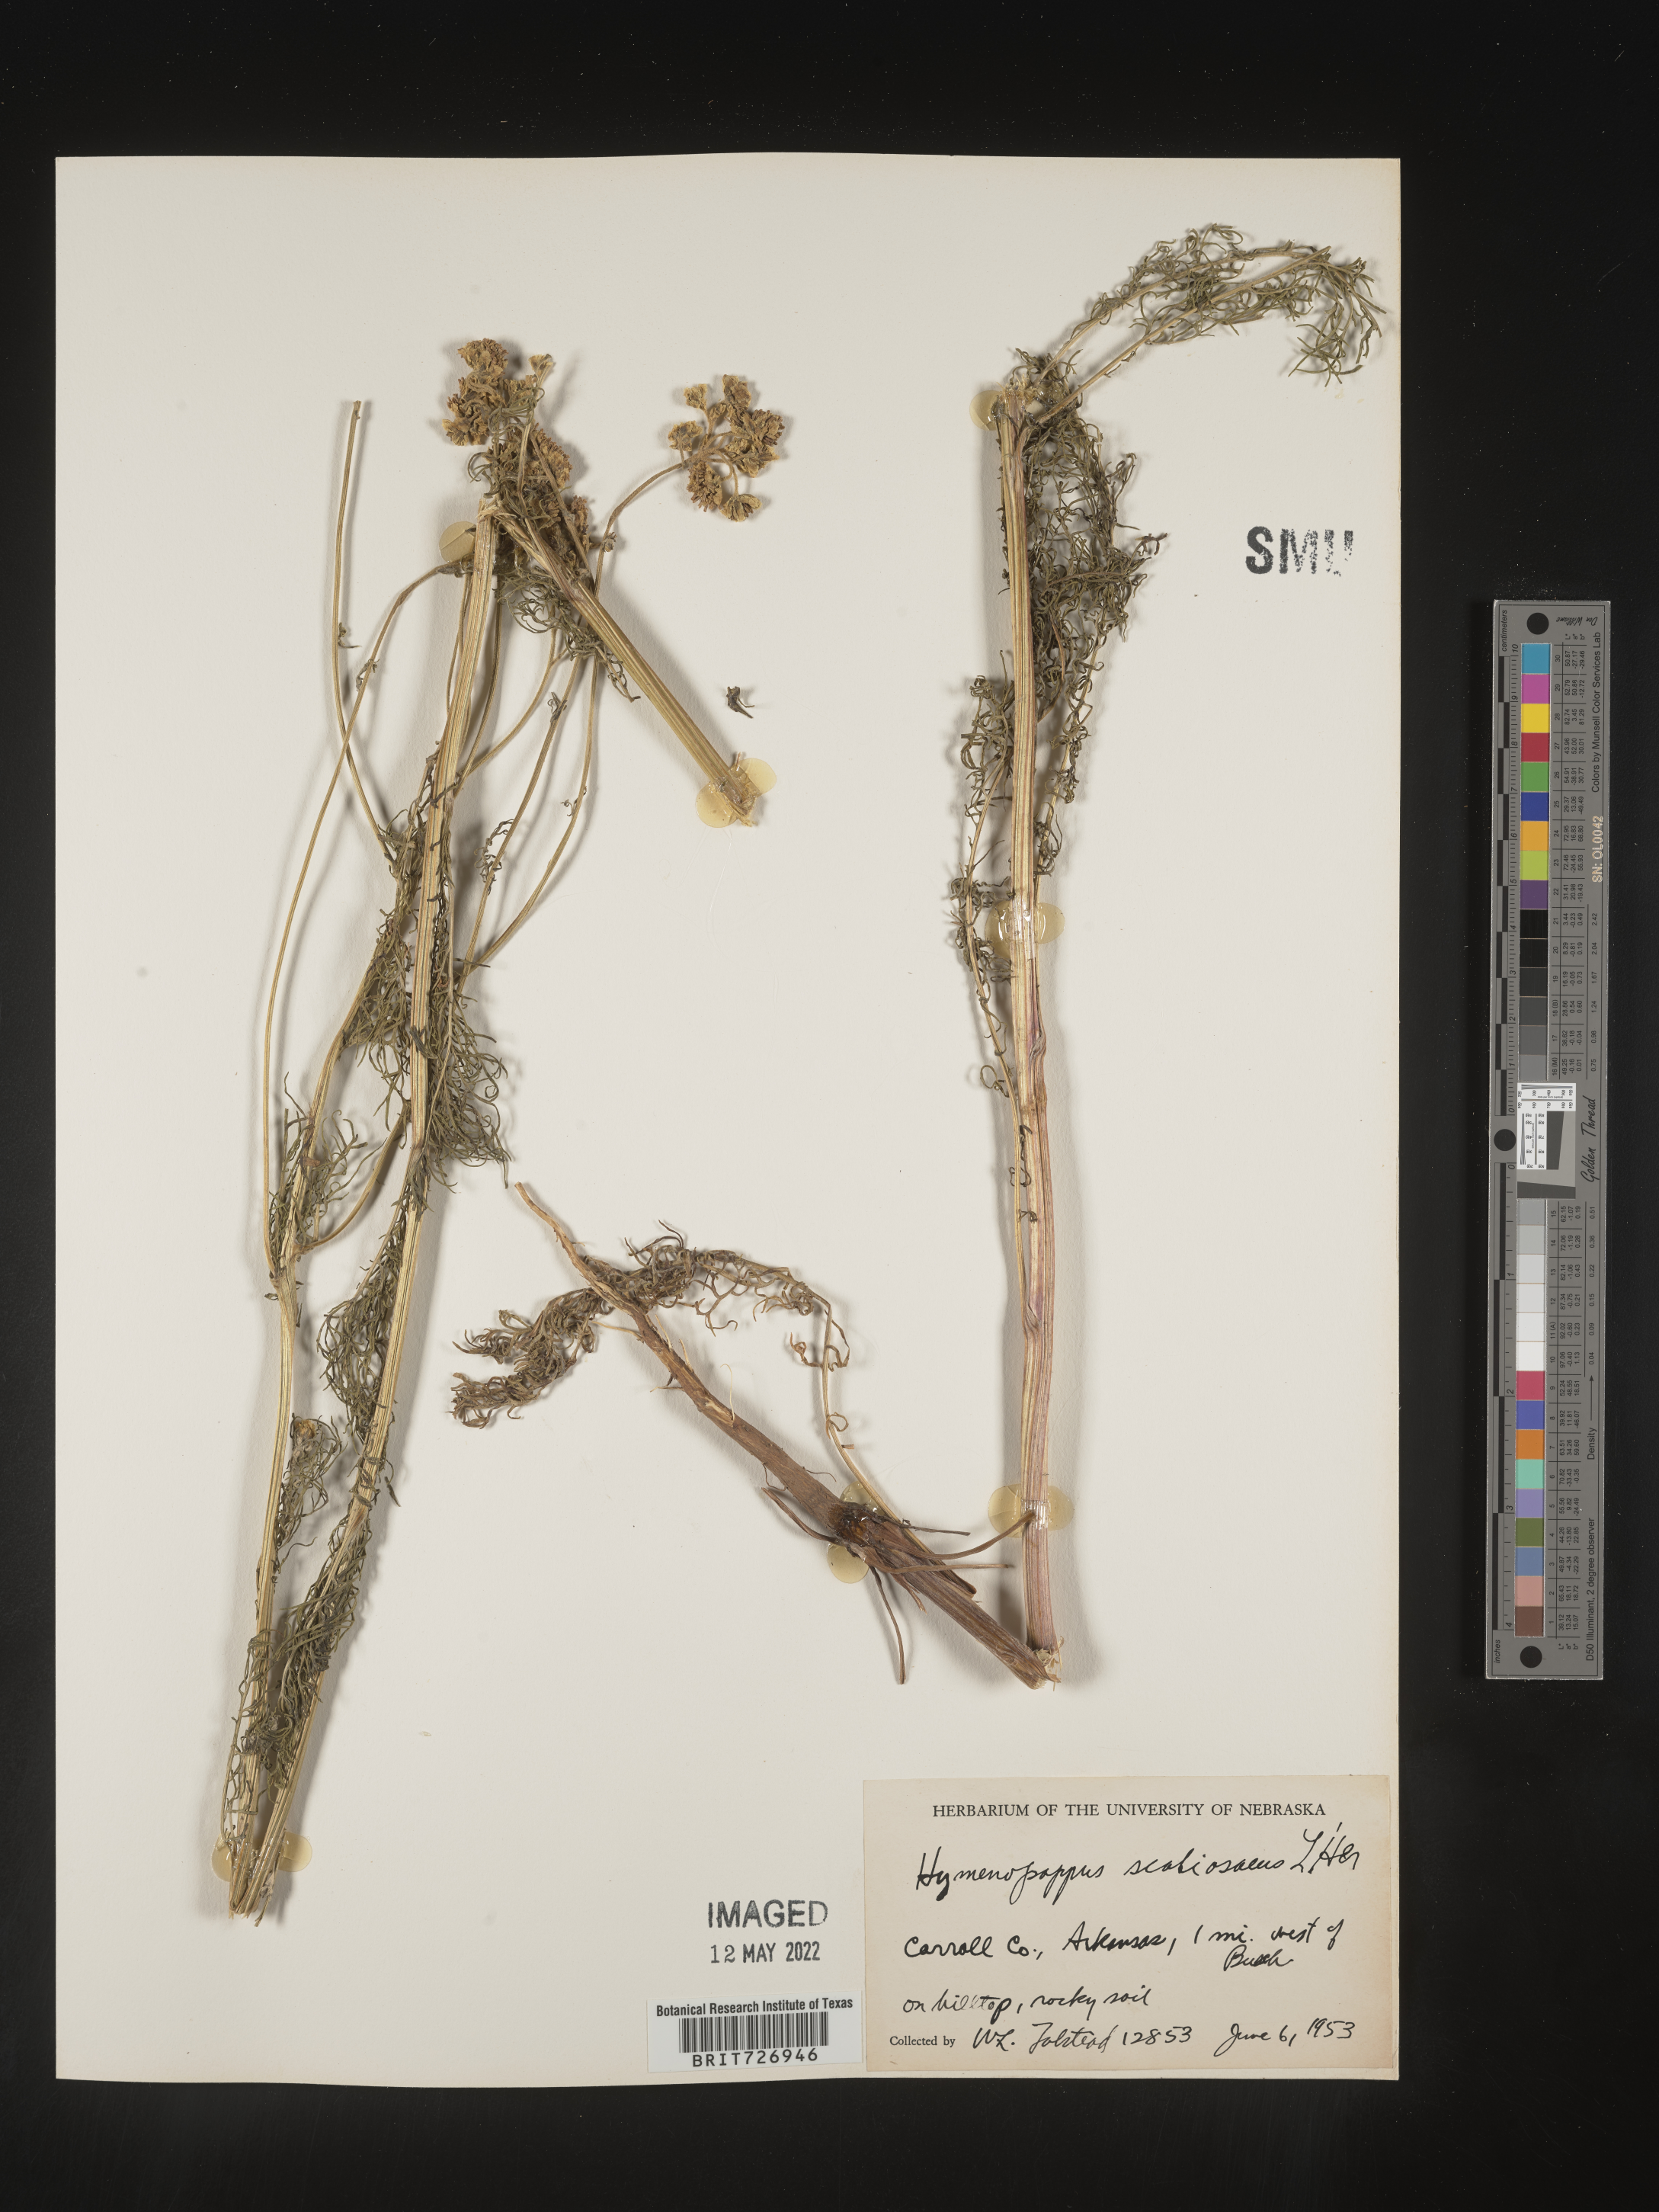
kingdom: Plantae
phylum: Tracheophyta
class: Magnoliopsida
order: Asterales
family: Asteraceae
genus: Hymenopappus
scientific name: Hymenopappus scabiosaeus
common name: Carolina woollywhite
